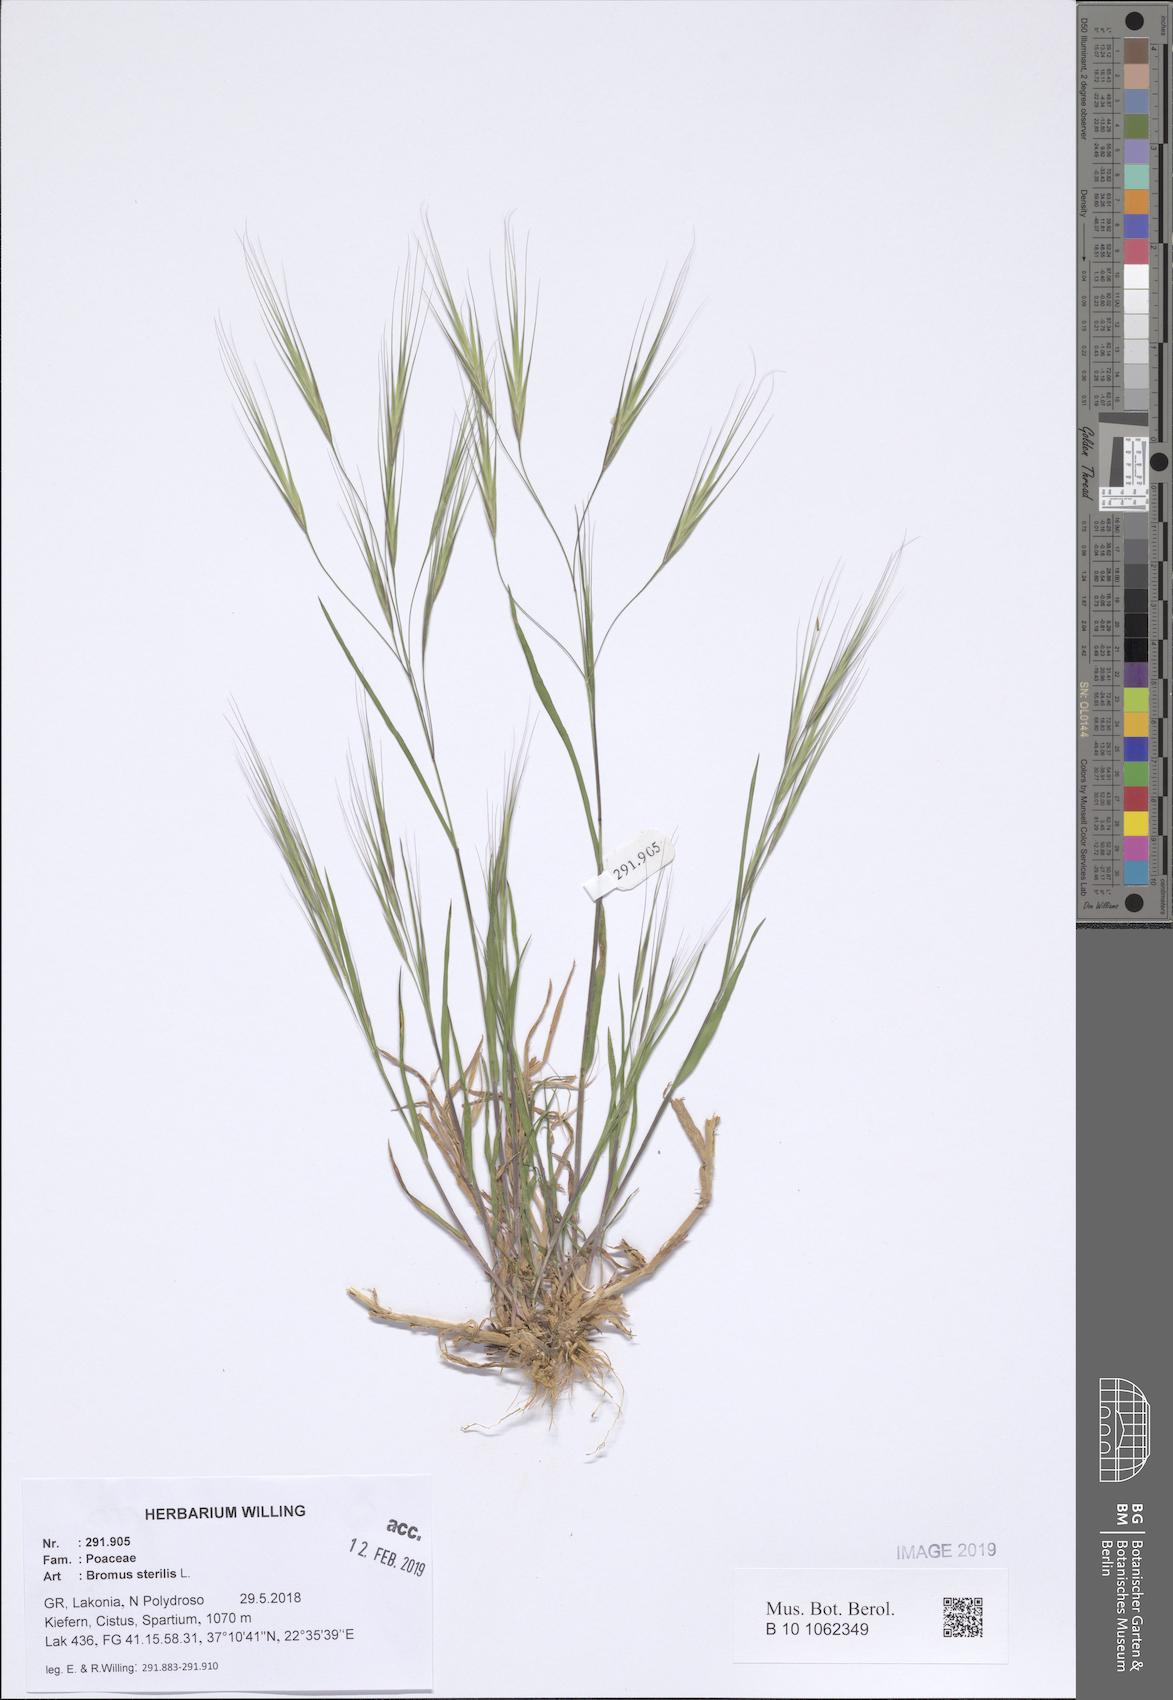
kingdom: Plantae
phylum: Tracheophyta
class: Liliopsida
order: Poales
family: Poaceae
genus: Bromus
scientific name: Bromus sterilis
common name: Poverty brome
